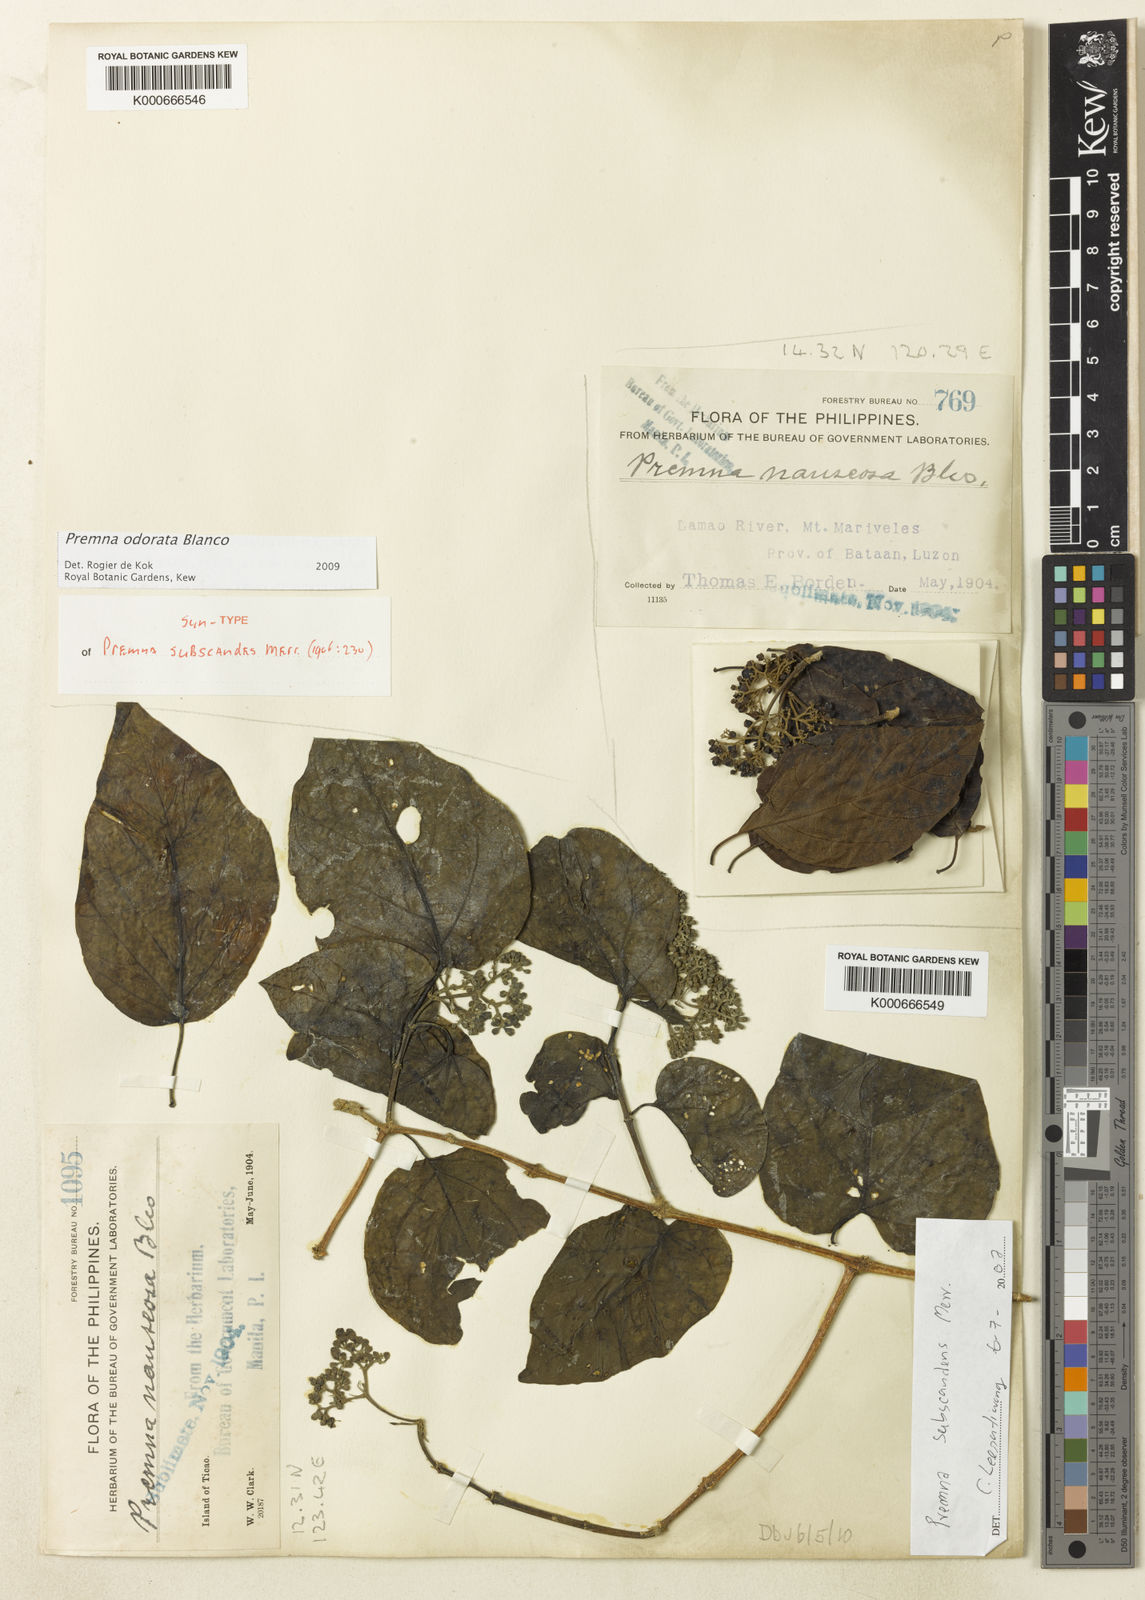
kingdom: Plantae
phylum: Tracheophyta
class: Magnoliopsida
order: Lamiales
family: Lamiaceae
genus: Premna
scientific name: Premna odorata
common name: Fragrant premna
